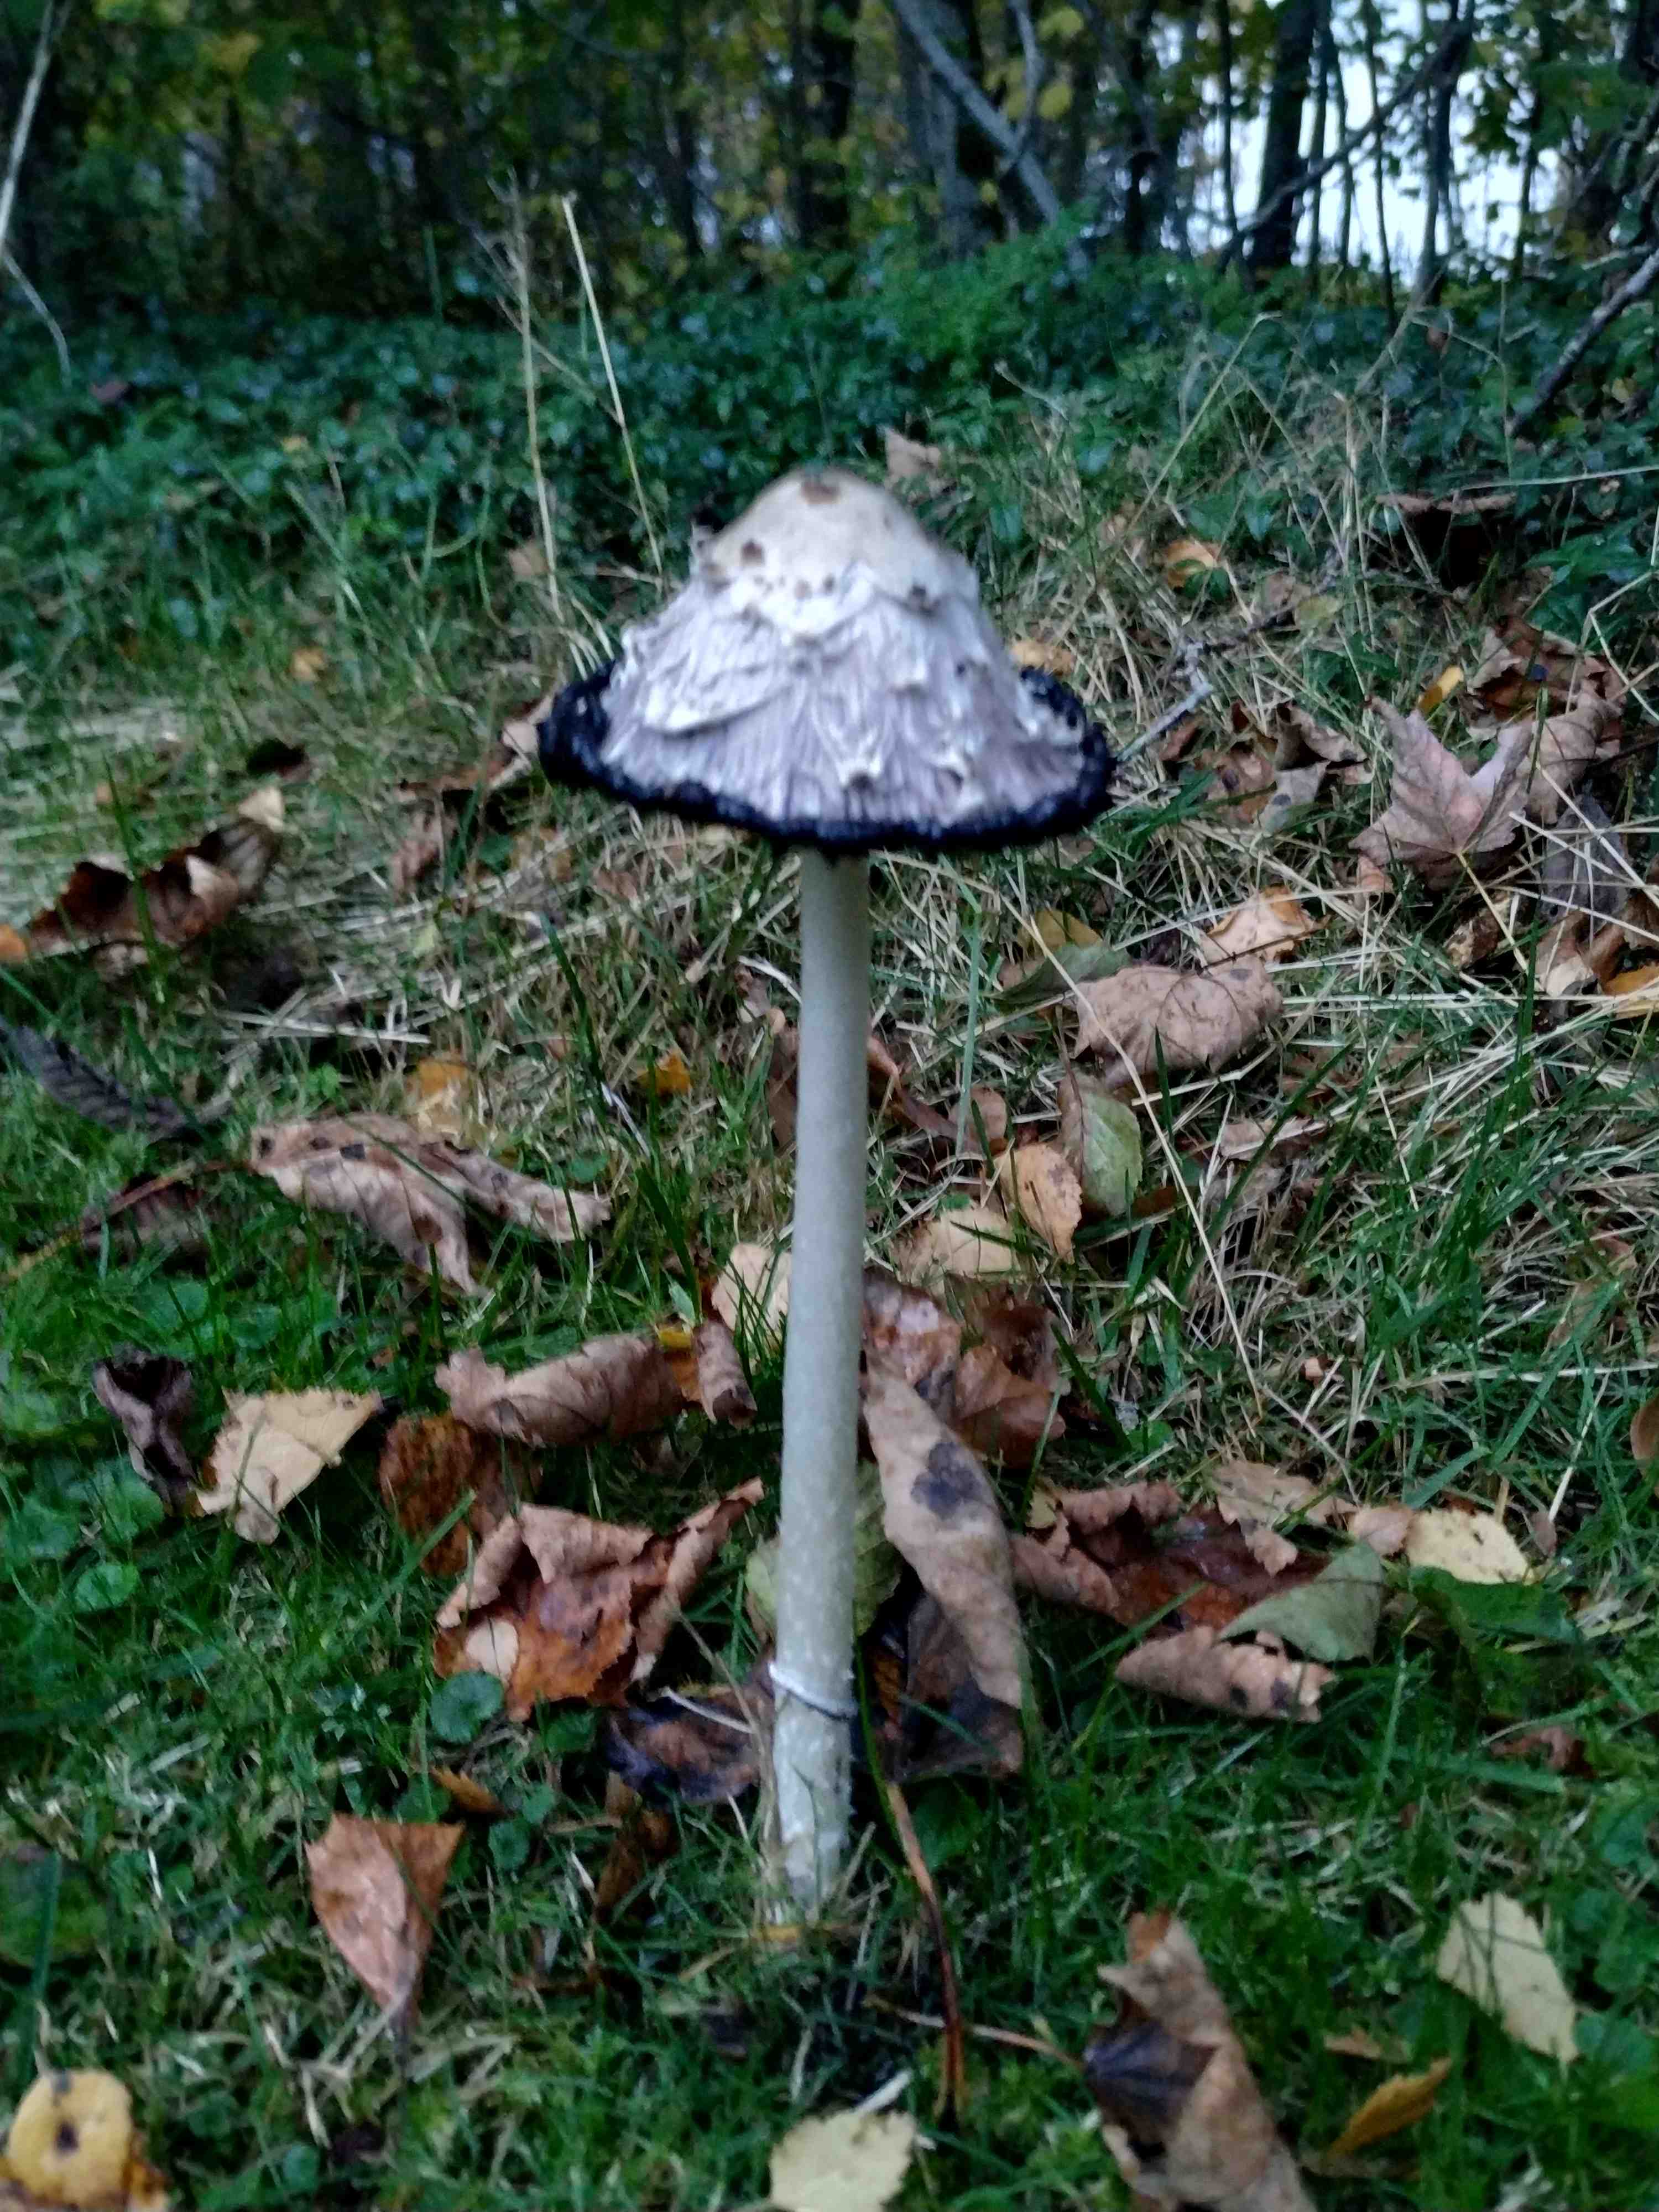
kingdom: Fungi
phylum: Basidiomycota
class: Agaricomycetes
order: Agaricales
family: Agaricaceae
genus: Coprinus
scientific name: Coprinus comatus
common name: stor parykhat
